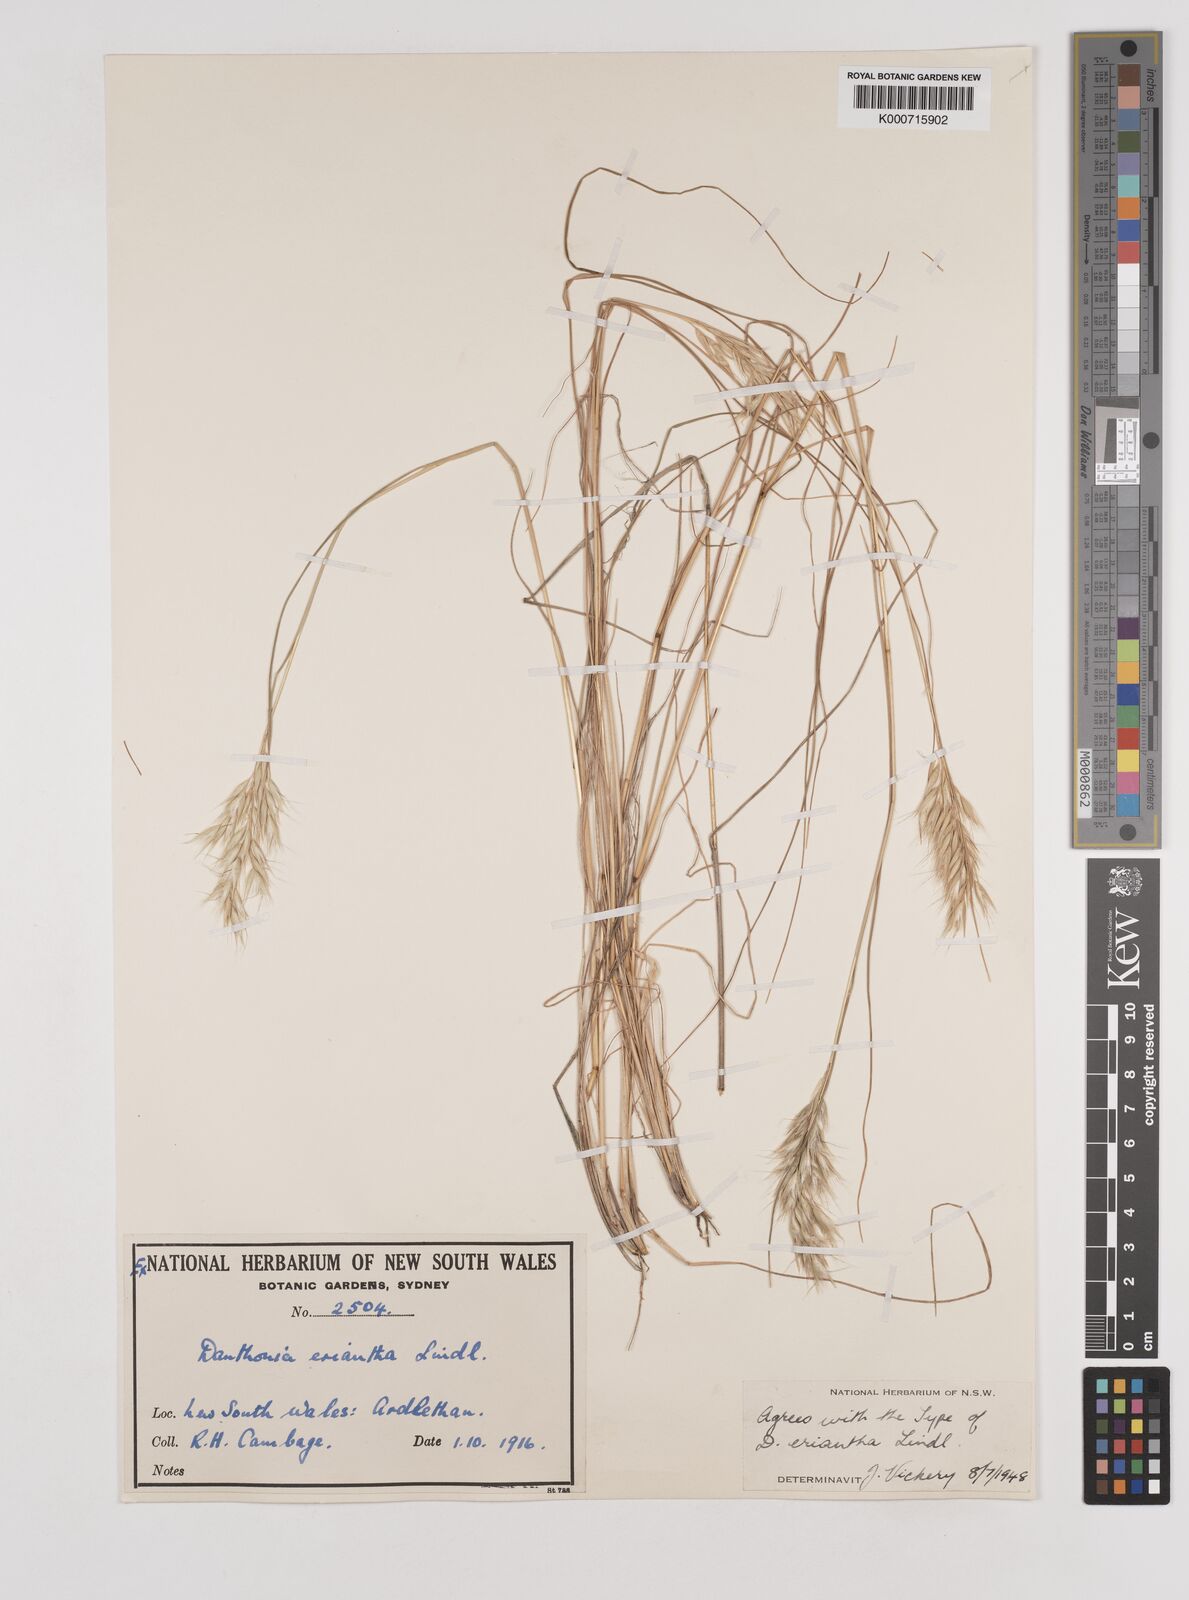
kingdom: Plantae
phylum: Tracheophyta
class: Liliopsida
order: Poales
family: Poaceae
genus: Rytidosperma
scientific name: Rytidosperma erianthum
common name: Hill wallaby grass
